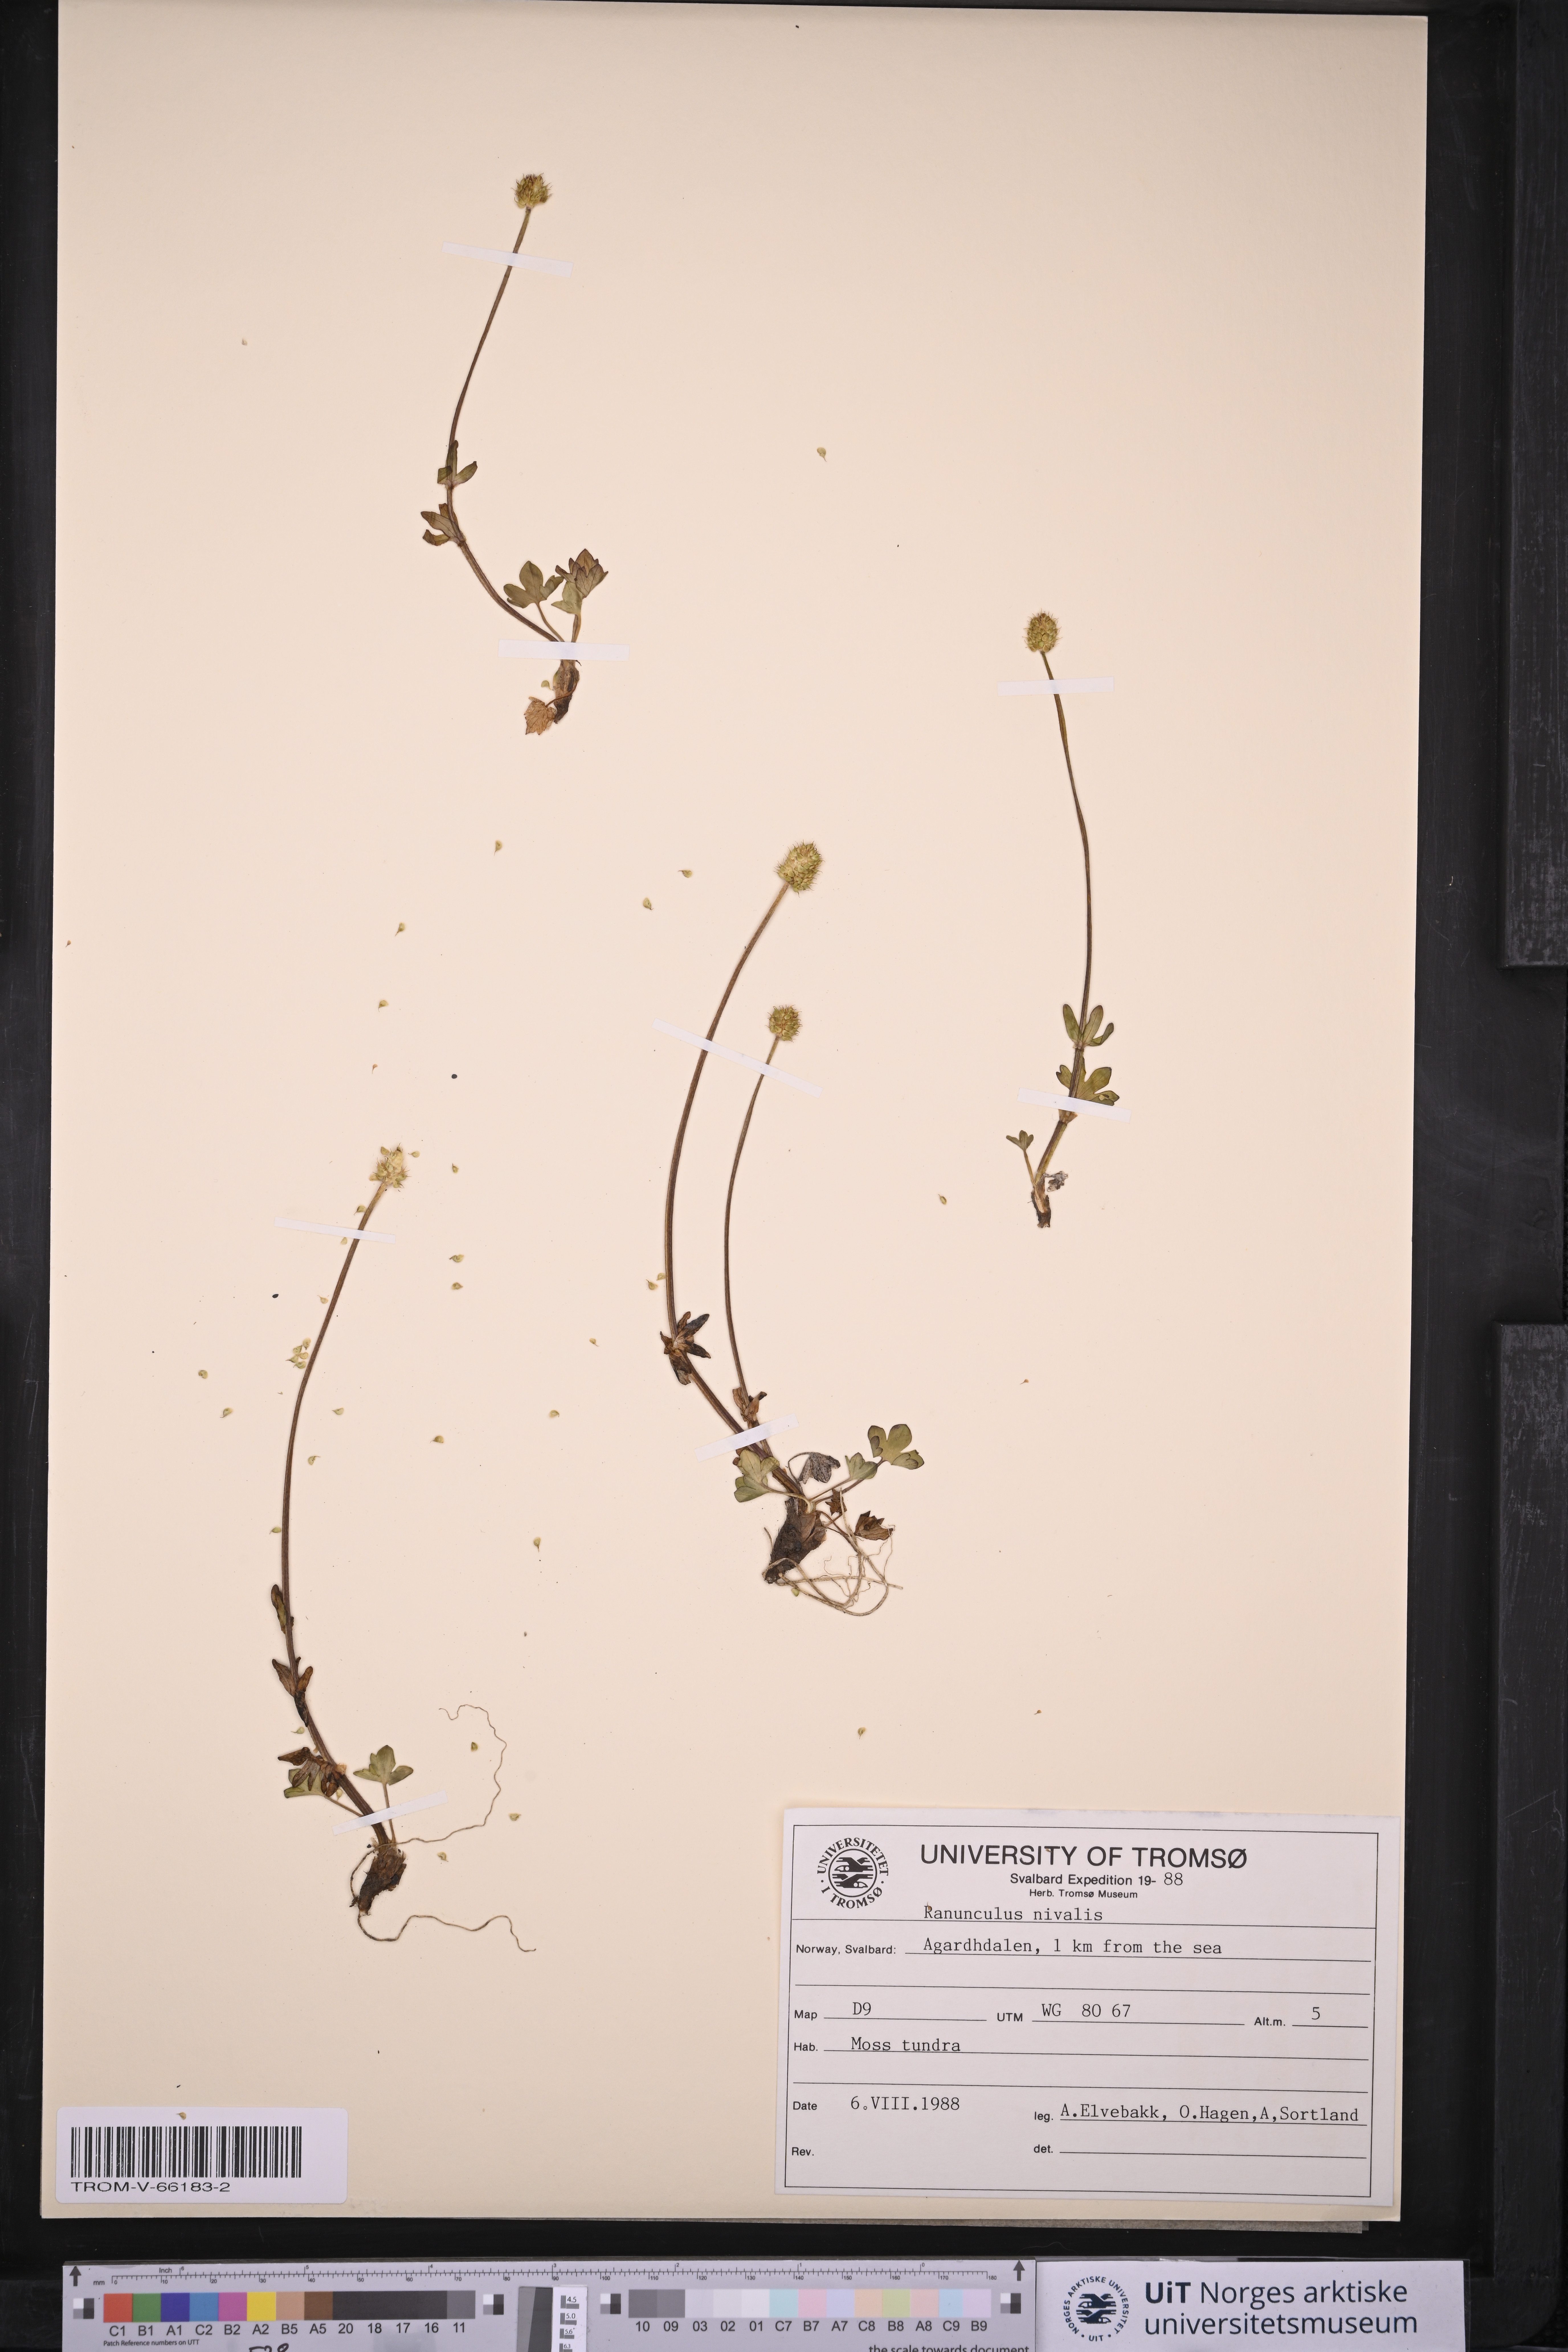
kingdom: Plantae
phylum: Tracheophyta
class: Magnoliopsida
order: Ranunculales
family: Ranunculaceae
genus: Ranunculus
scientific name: Ranunculus nivalis
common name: Snow buttercup
